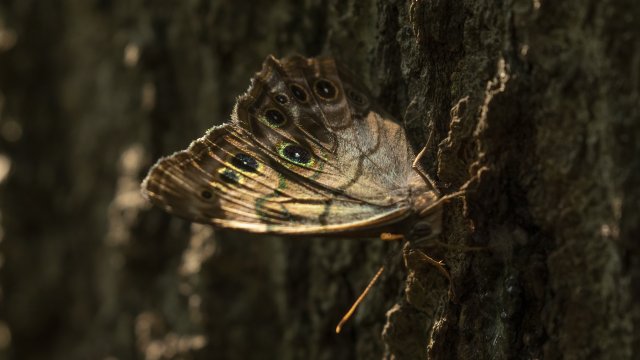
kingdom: Animalia
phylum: Arthropoda
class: Insecta
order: Lepidoptera
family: Nymphalidae
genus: Lethe
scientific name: Lethe anthedon
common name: Northern Pearly-Eye
